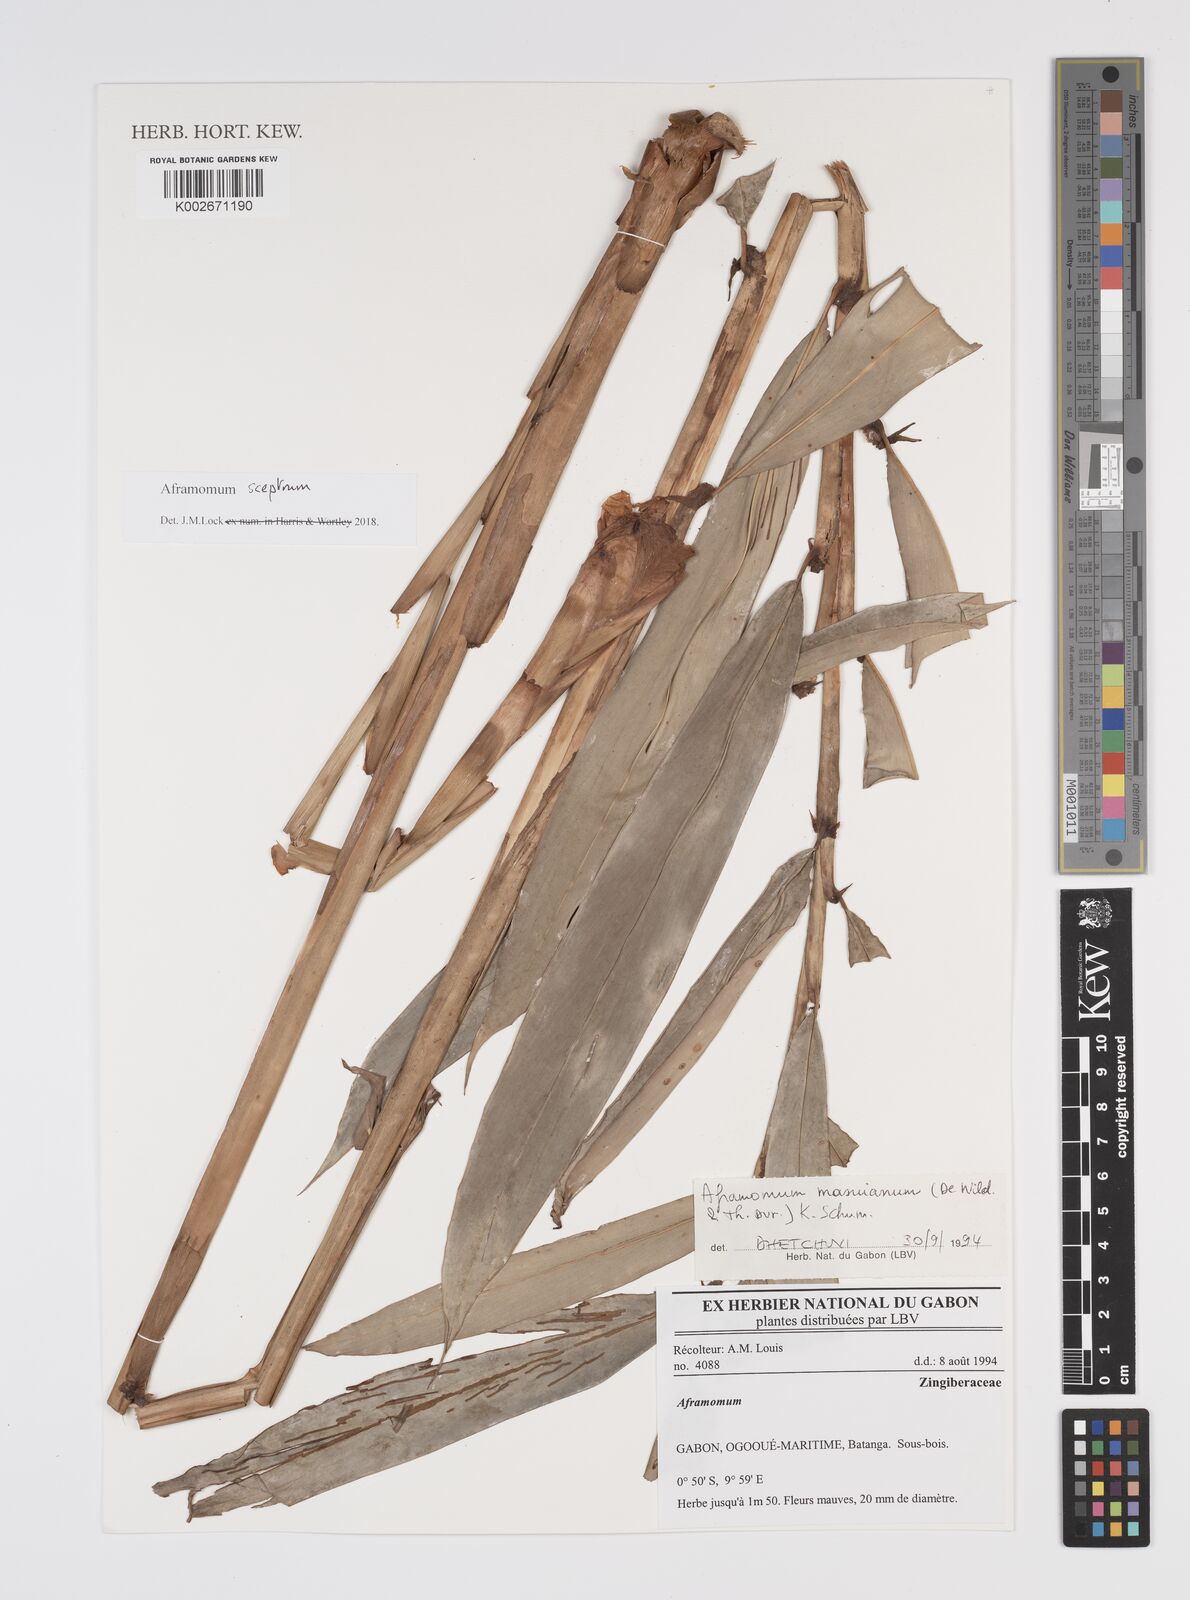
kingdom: Plantae
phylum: Tracheophyta
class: Liliopsida
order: Zingiberales
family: Zingiberaceae
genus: Aframomum
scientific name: Aframomum cereum
